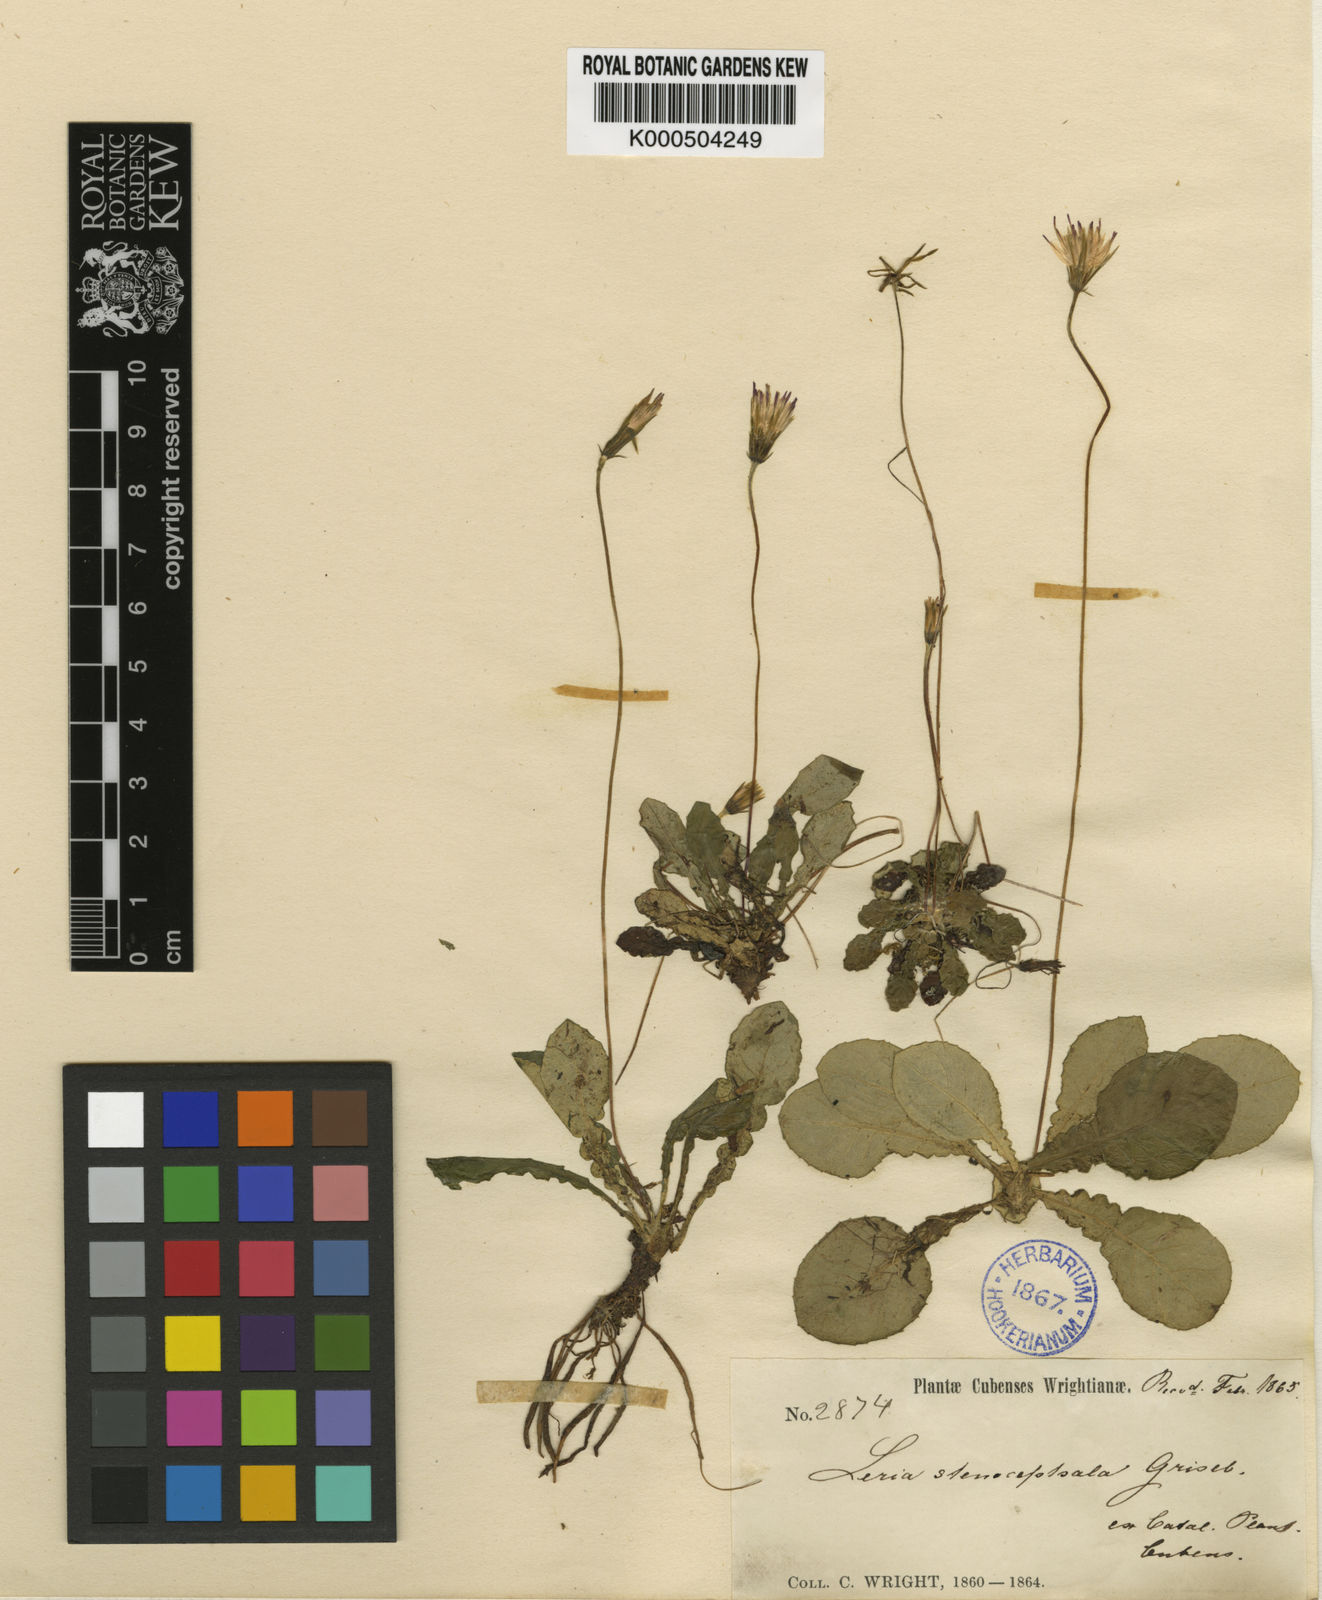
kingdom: Plantae
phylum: Tracheophyta
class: Magnoliopsida
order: Asterales
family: Asteraceae
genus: Chaptalia
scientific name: Chaptalia stenocephala
